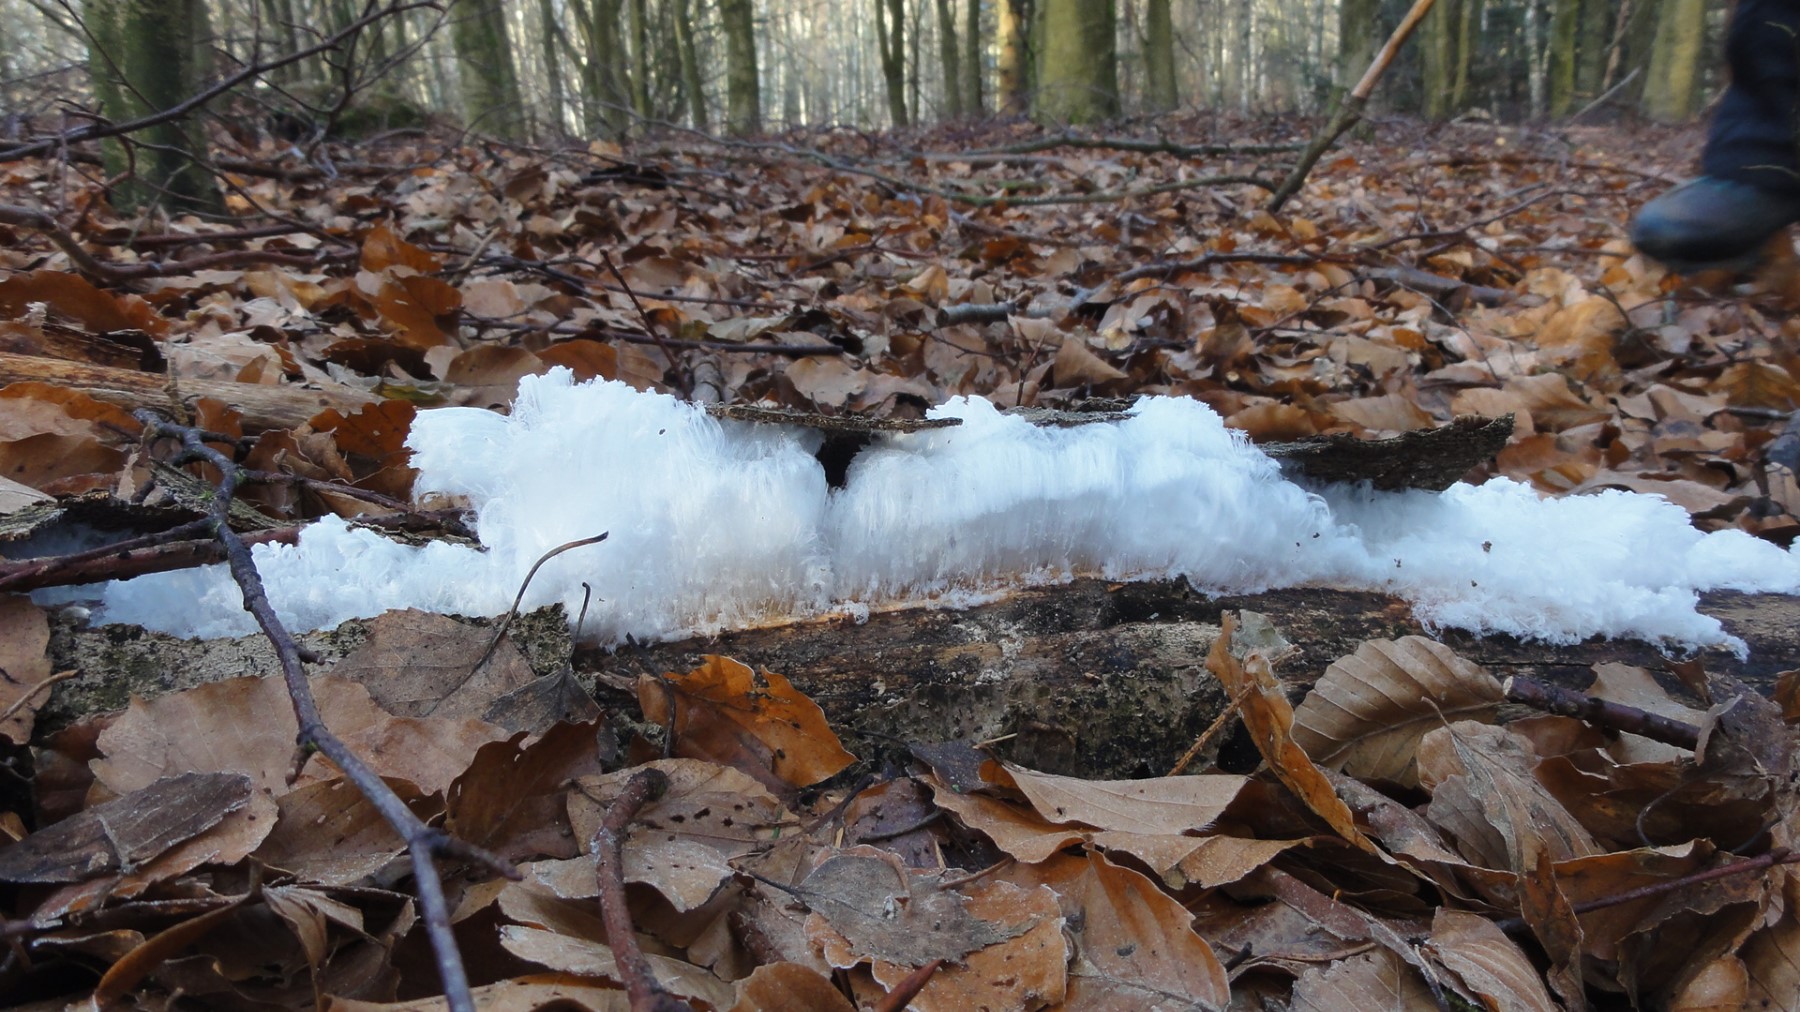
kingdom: Fungi
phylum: Basidiomycota
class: Tremellomycetes
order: Tremellales
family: Exidiaceae
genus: Exidiopsis
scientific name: Exidiopsis effusa
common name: smuk bævrehinde
